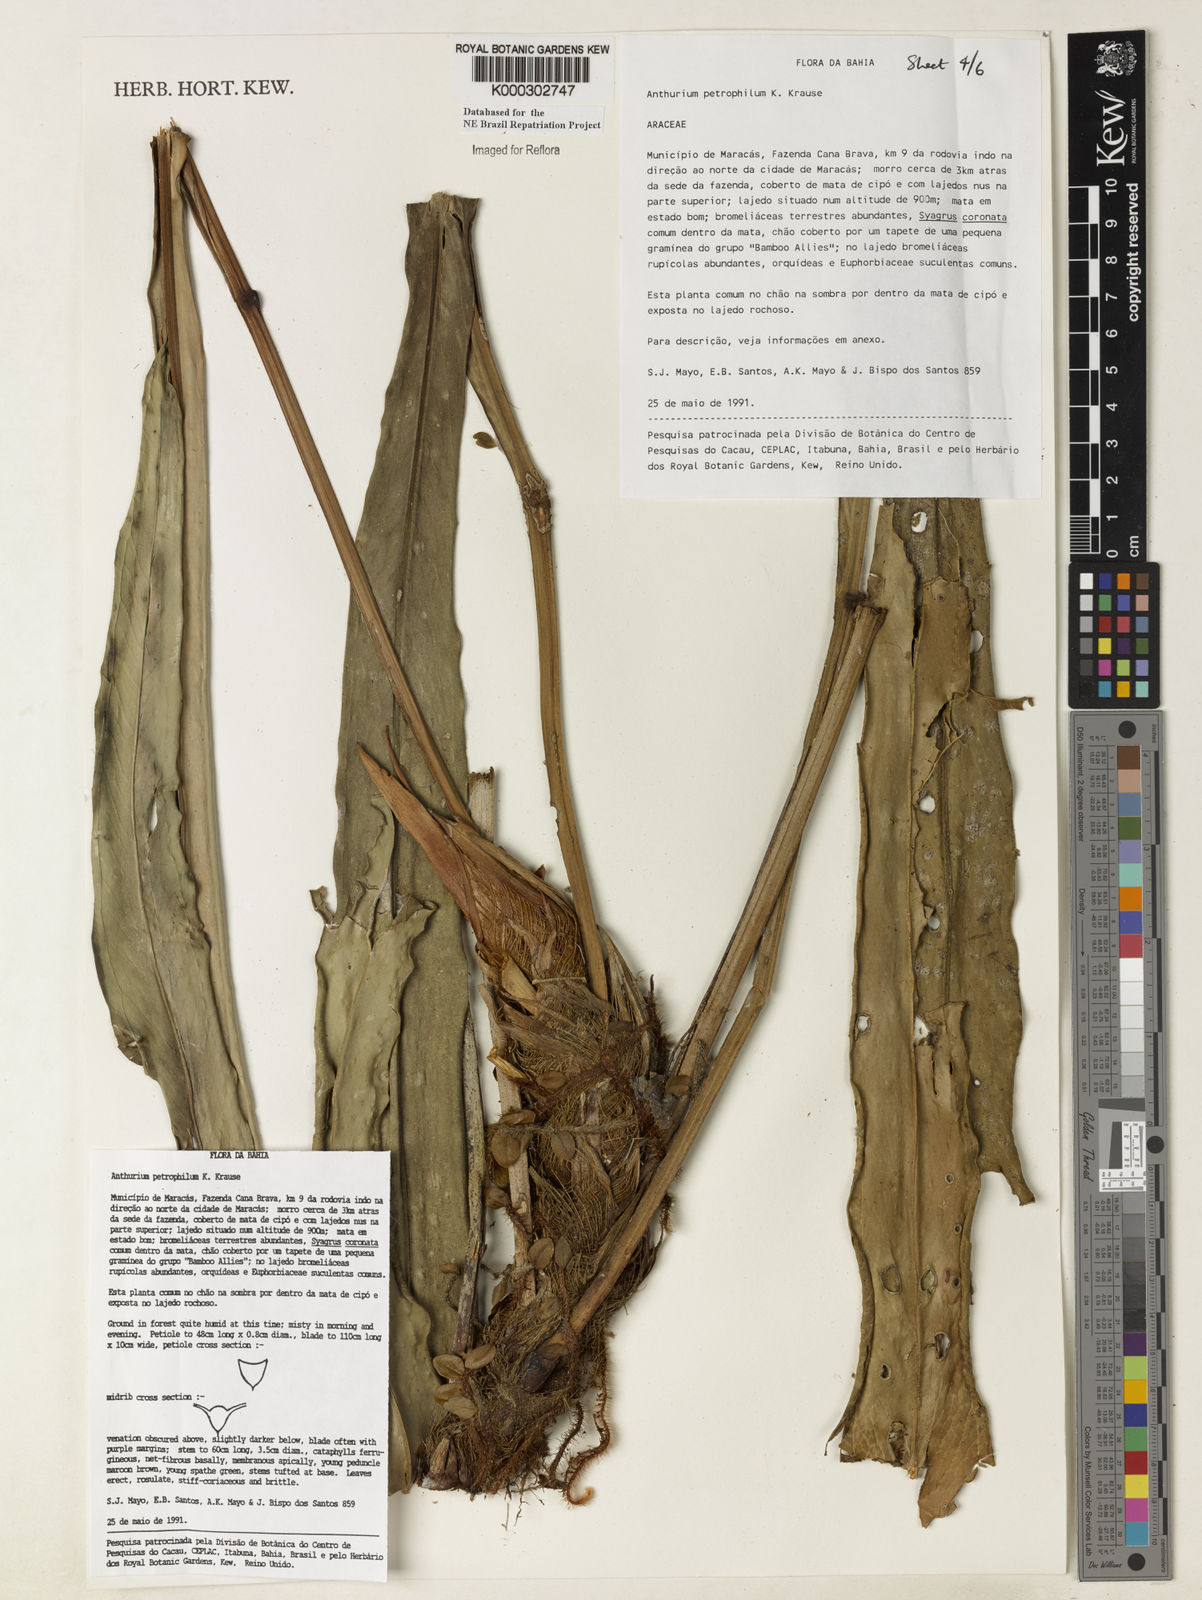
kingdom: Plantae
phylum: Tracheophyta
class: Liliopsida
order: Alismatales
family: Araceae
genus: Anthurium
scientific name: Anthurium petrophilum
